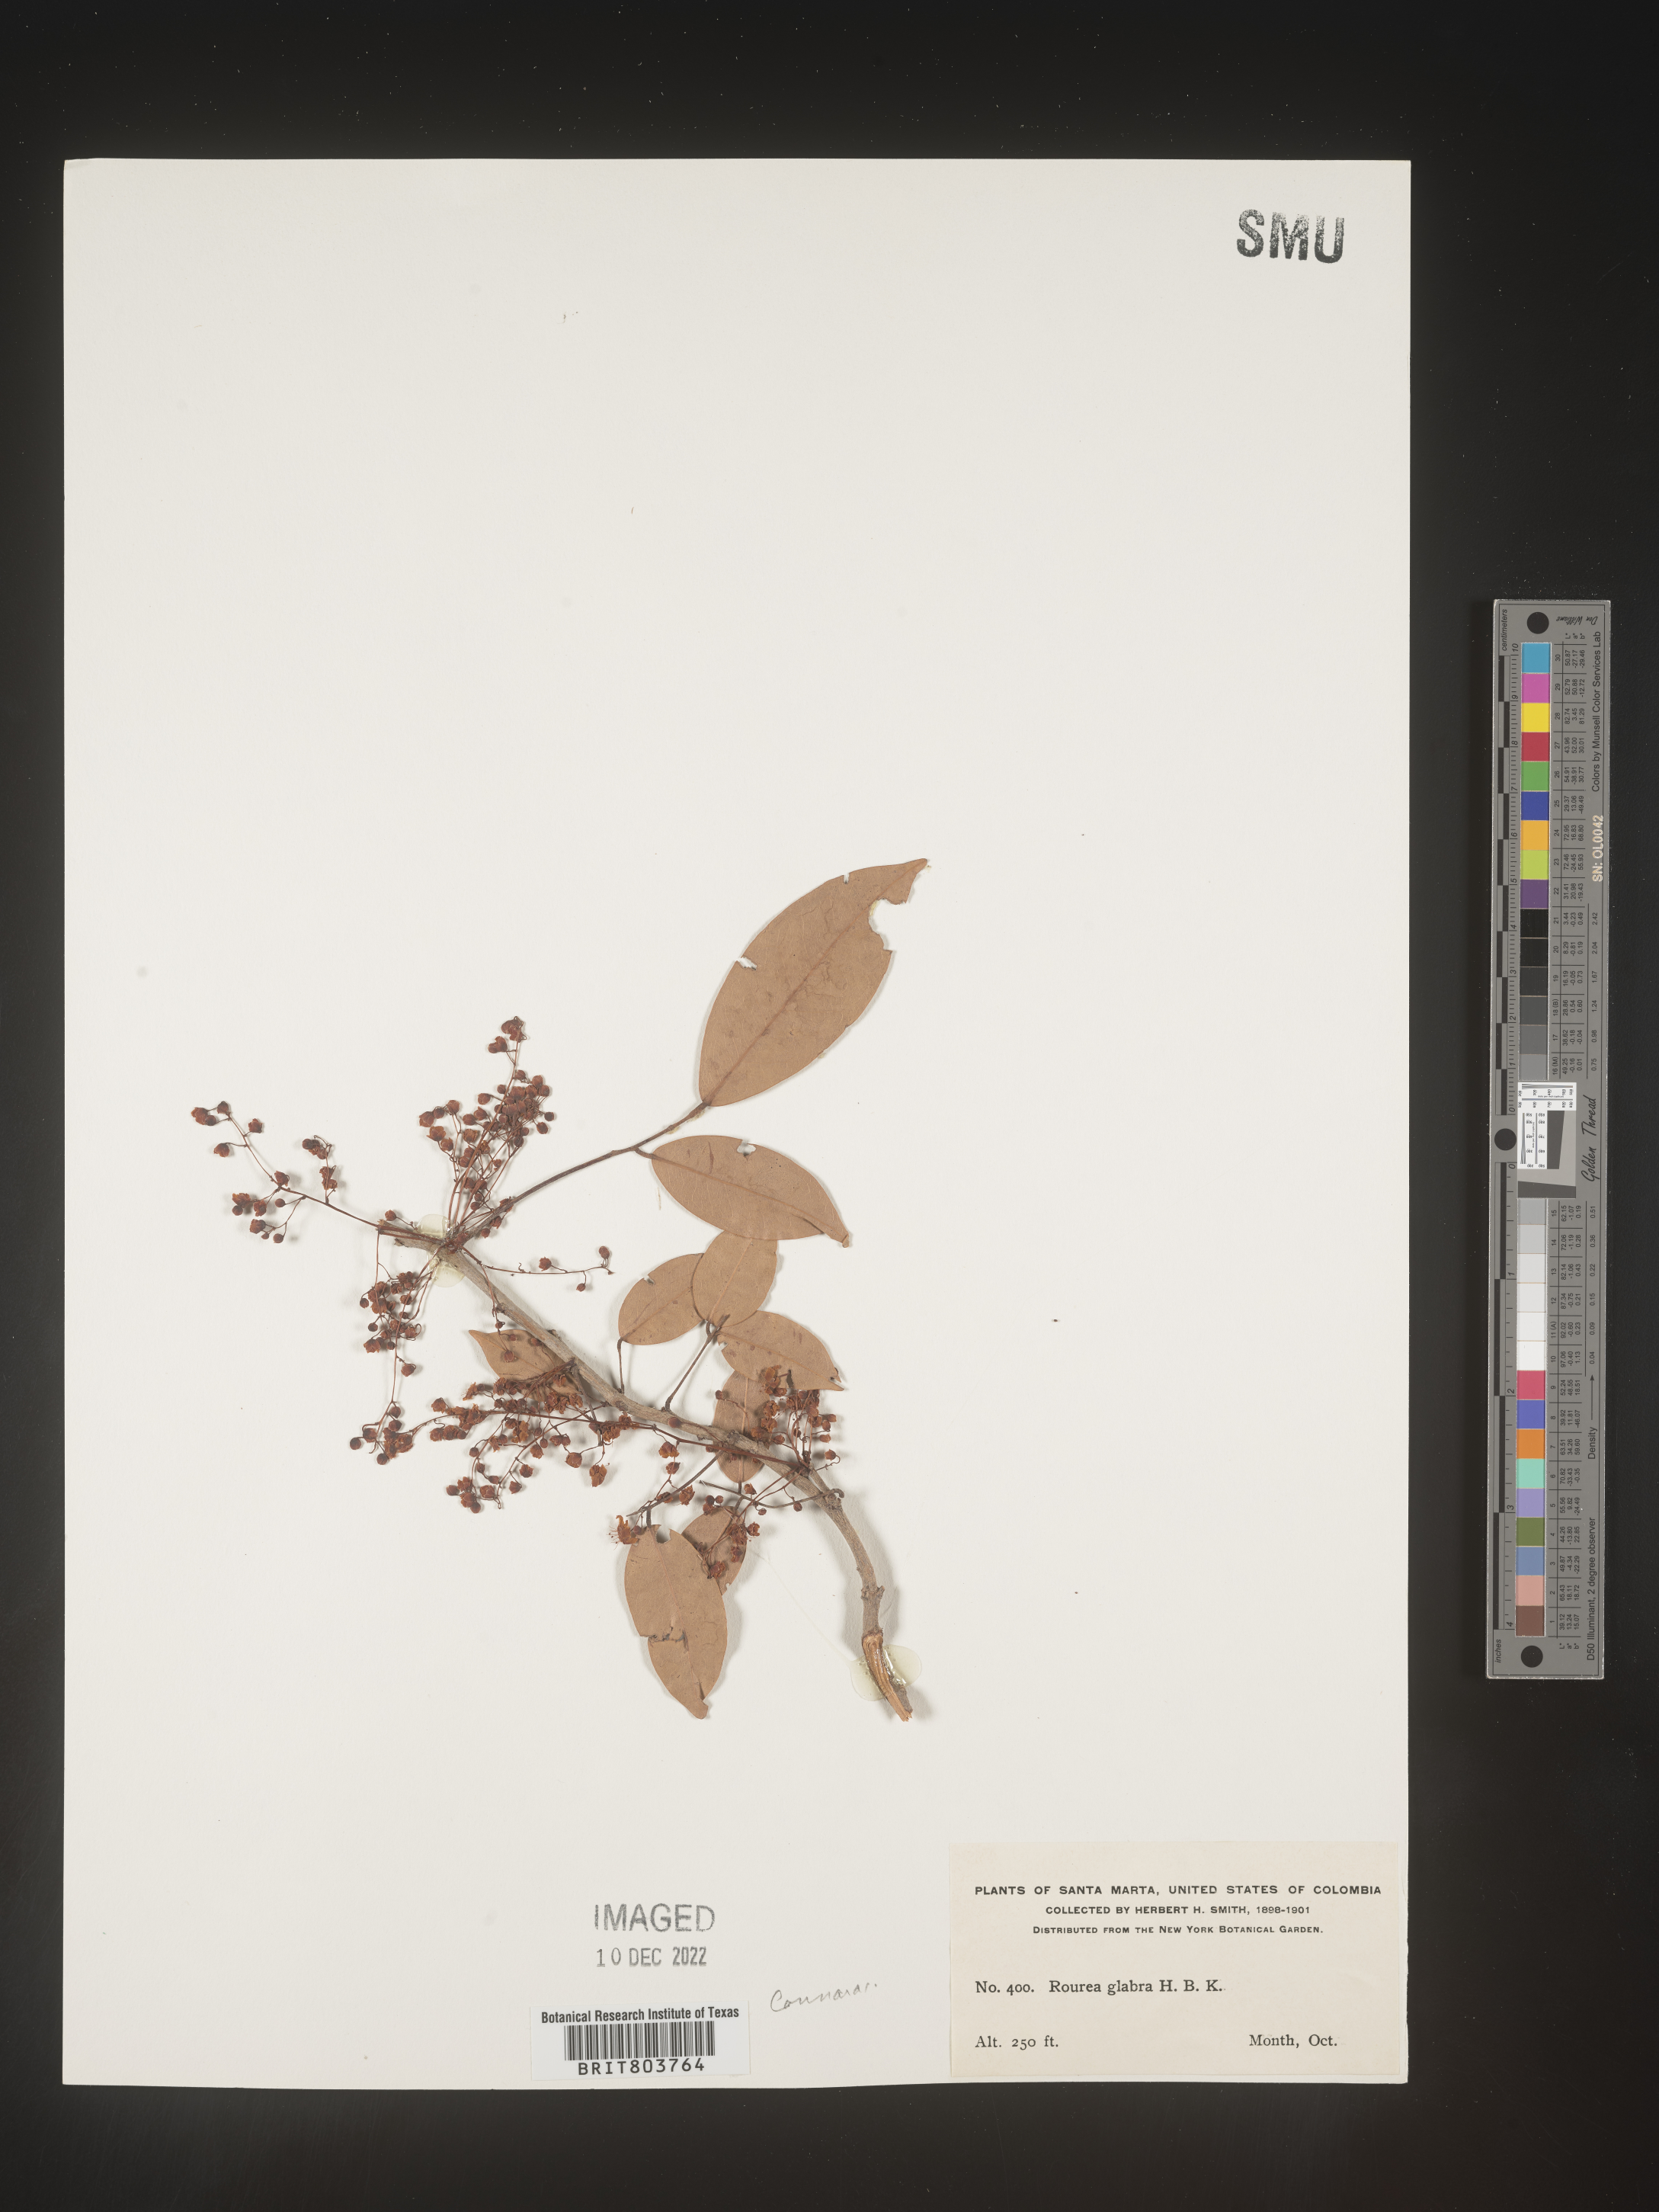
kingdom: Plantae
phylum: Tracheophyta
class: Magnoliopsida
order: Oxalidales
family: Connaraceae
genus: Rourea
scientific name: Rourea
